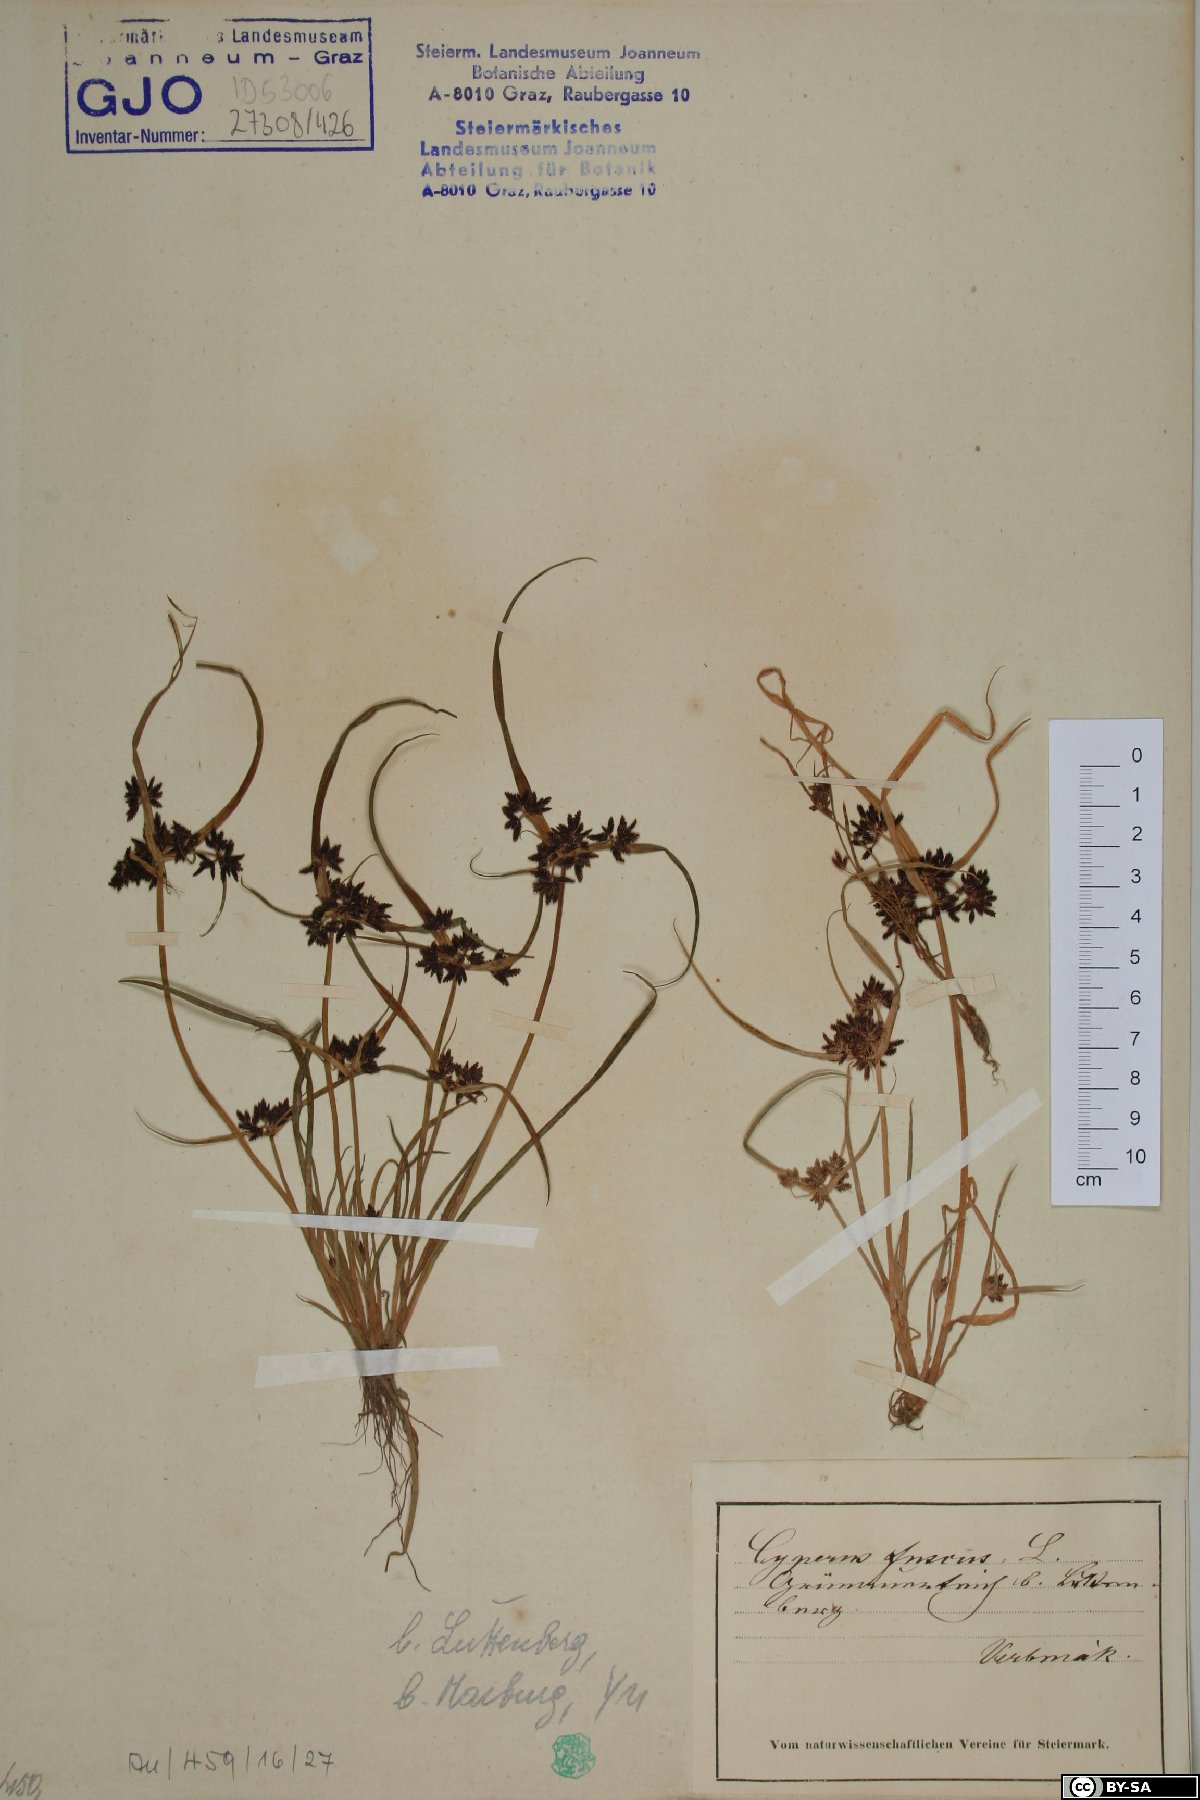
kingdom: Plantae
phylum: Tracheophyta
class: Liliopsida
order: Poales
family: Cyperaceae
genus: Cyperus
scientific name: Cyperus fuscus
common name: Brown galingale
